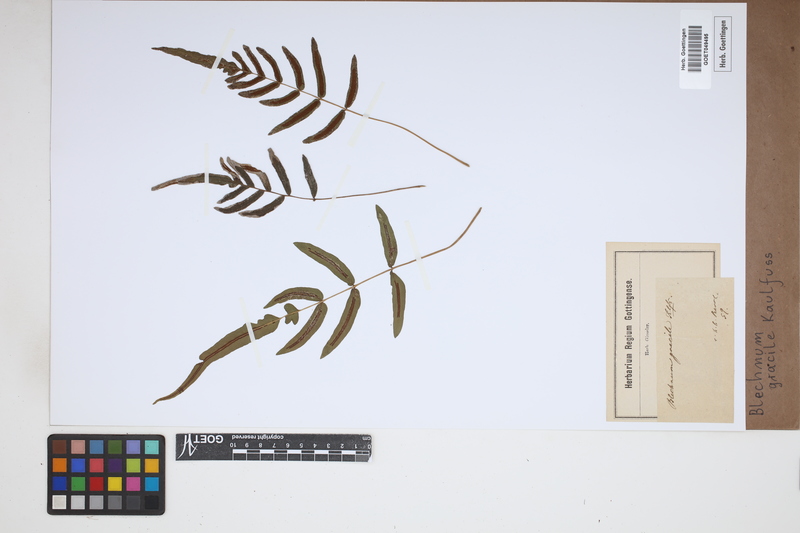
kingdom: Plantae
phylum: Tracheophyta
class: Polypodiopsida
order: Polypodiales
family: Blechnaceae
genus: Blechnum
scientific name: Blechnum gracile
